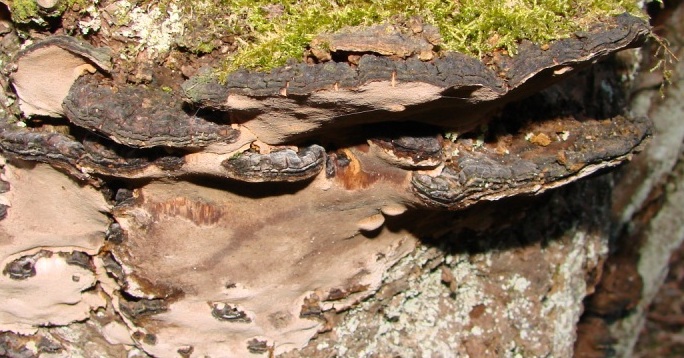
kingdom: Fungi
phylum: Basidiomycota
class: Agaricomycetes
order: Hymenochaetales
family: Hymenochaetaceae
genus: Phellinopsis
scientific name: Phellinopsis conchata
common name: pile-ildporesvamp
